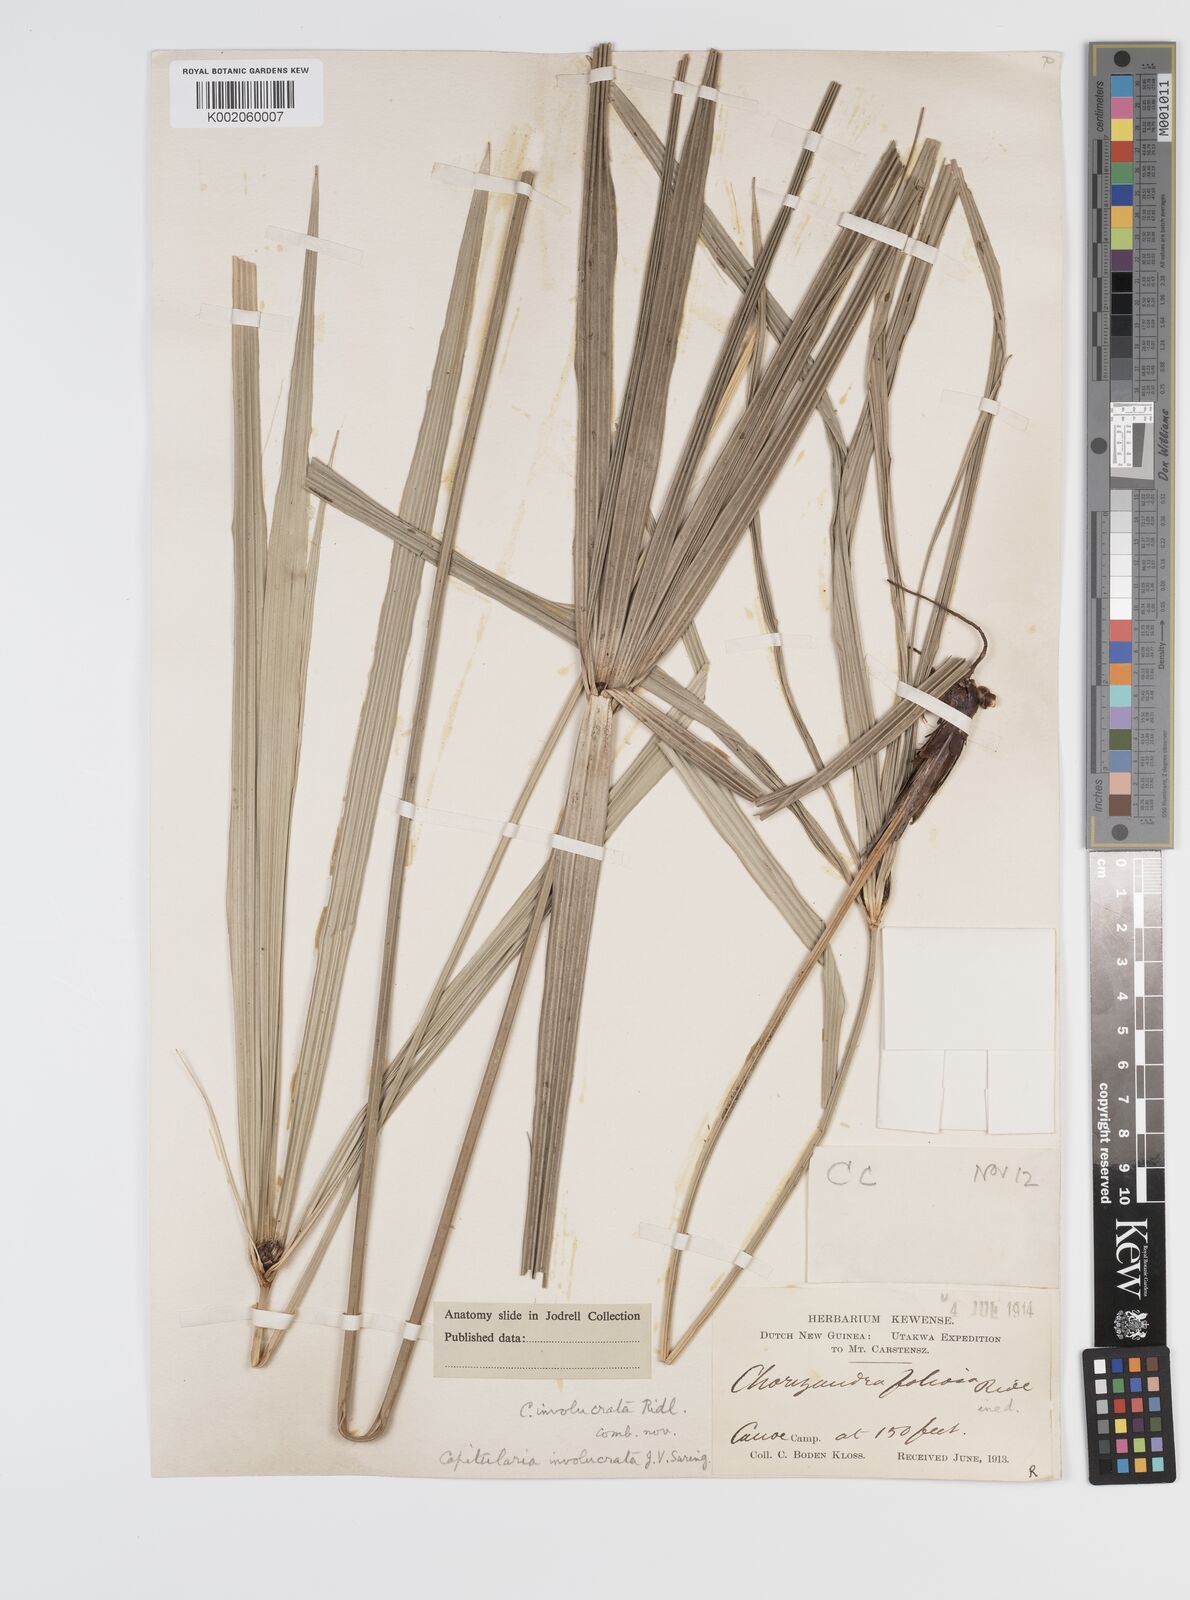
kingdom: Plantae
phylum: Tracheophyta
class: Liliopsida
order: Poales
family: Cyperaceae
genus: Capitularina
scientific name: Capitularina involucrata
